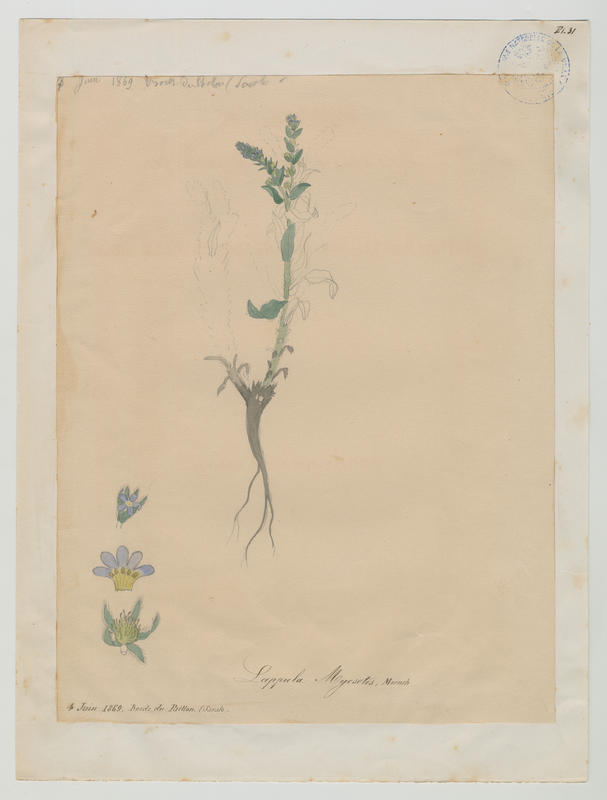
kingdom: Plantae
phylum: Tracheophyta
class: Magnoliopsida
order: Boraginales
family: Boraginaceae
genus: Lappula
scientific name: Lappula squarrosa
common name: European stickseed
